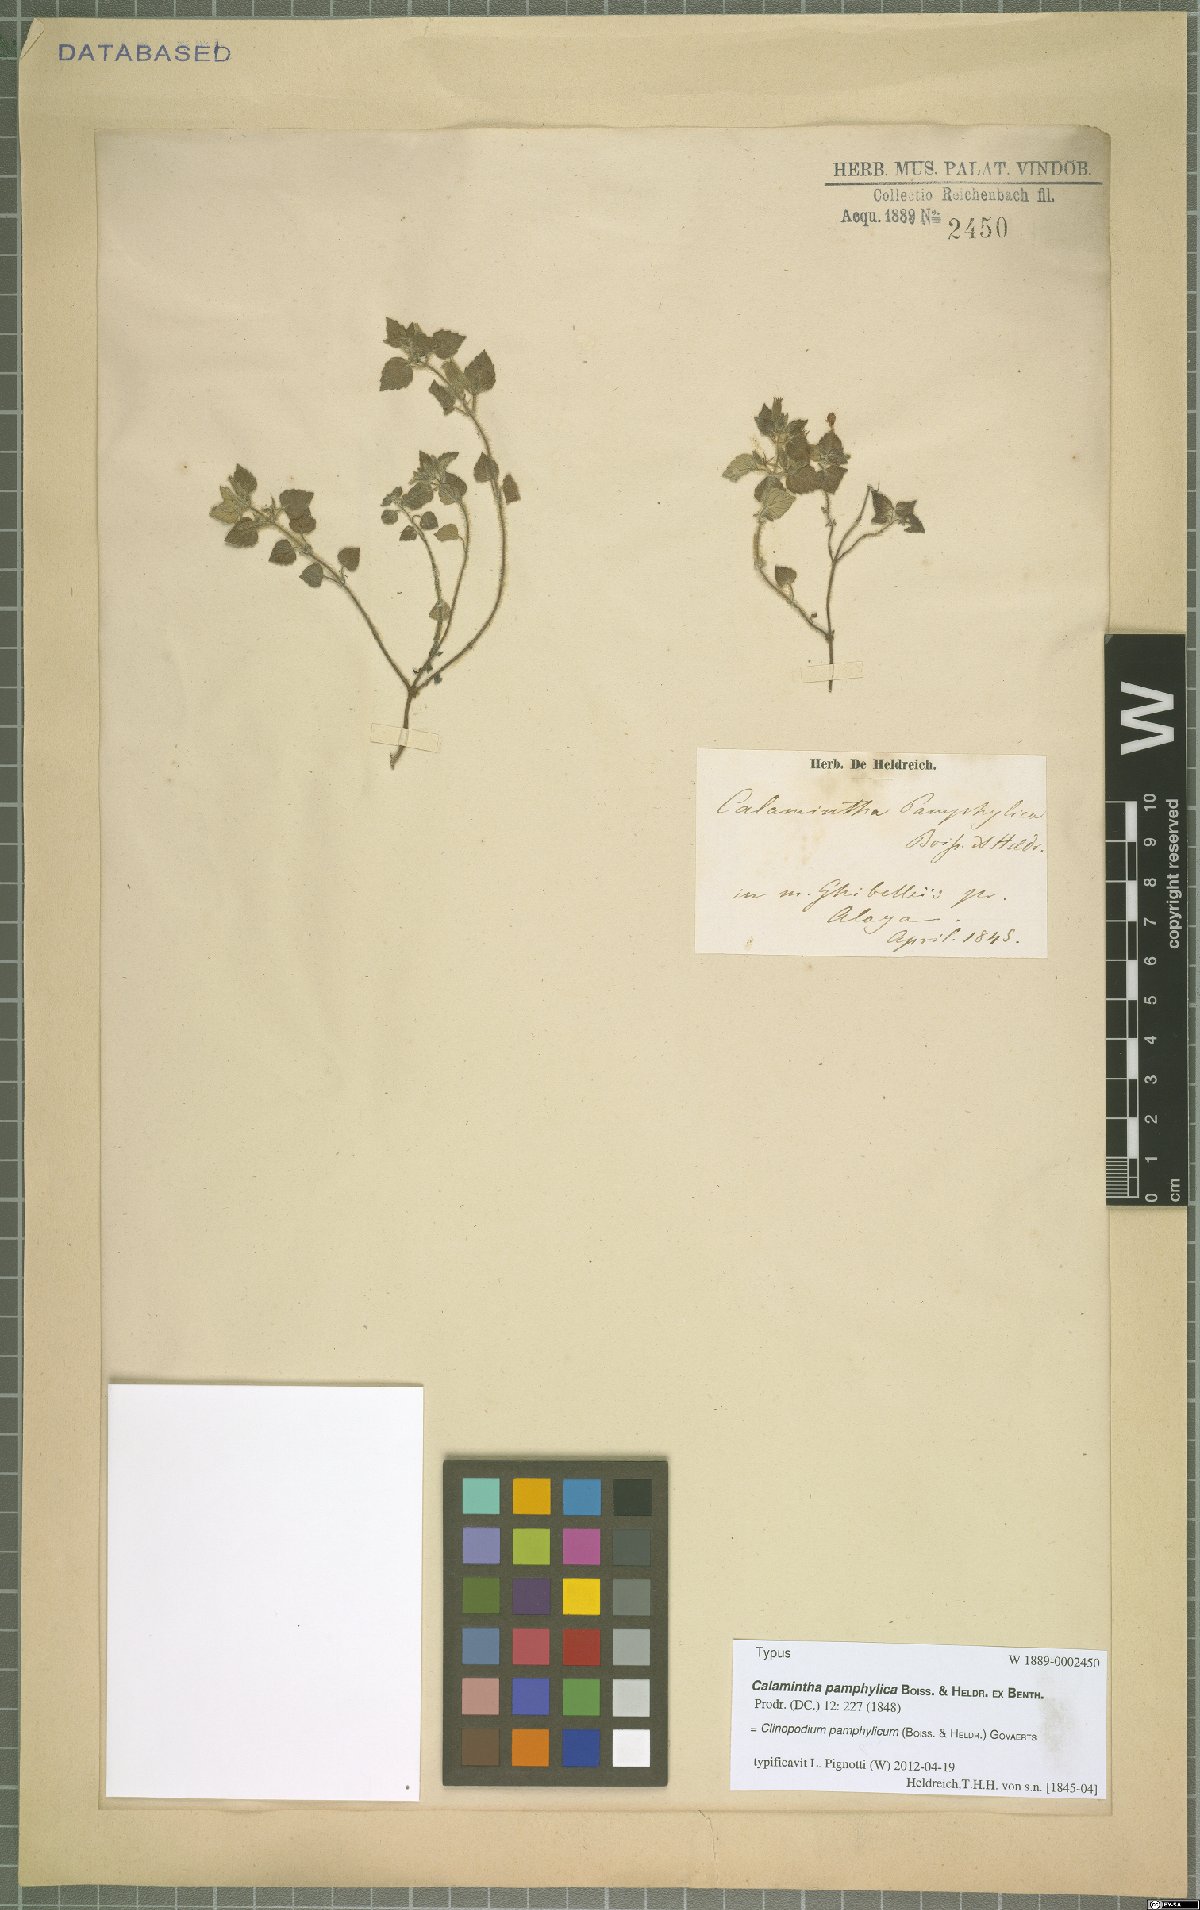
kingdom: Plantae
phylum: Tracheophyta
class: Magnoliopsida
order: Lamiales
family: Lamiaceae
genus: Clinopodium
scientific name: Clinopodium pamphylicum
